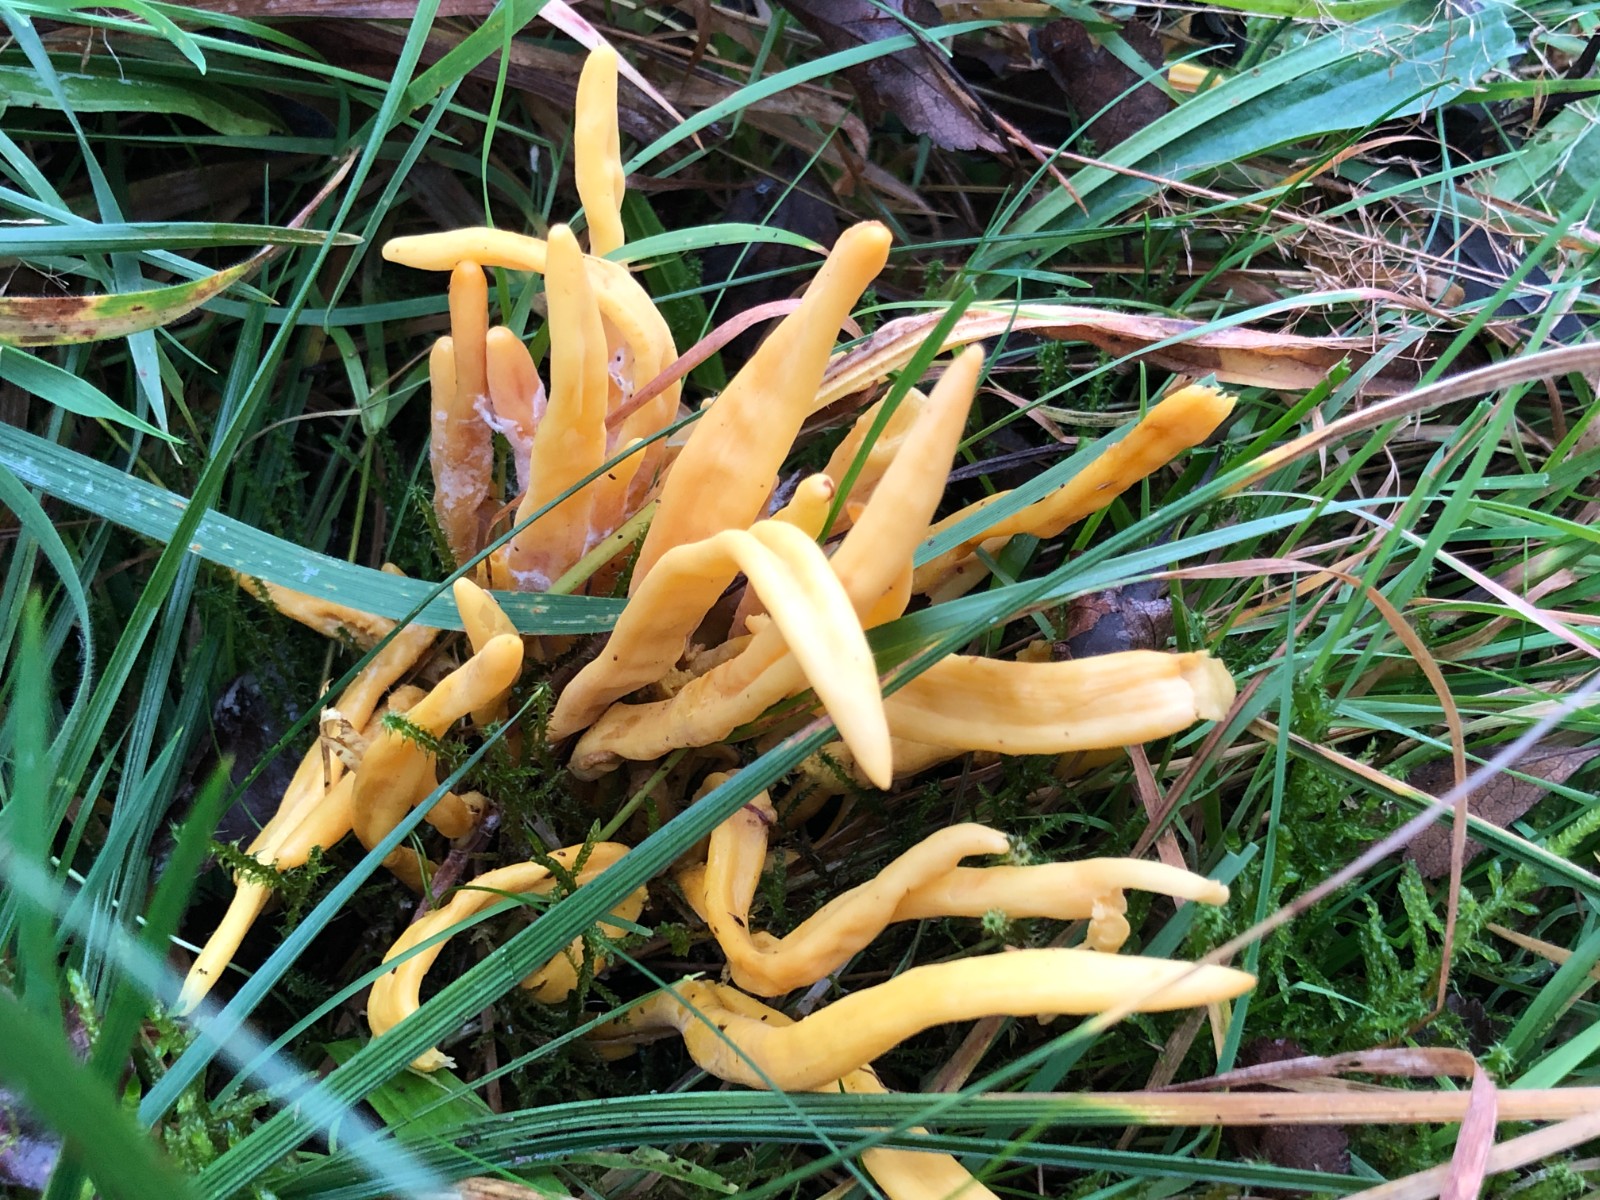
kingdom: Fungi
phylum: Basidiomycota
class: Agaricomycetes
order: Agaricales
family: Clavariaceae
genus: Clavulinopsis
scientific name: Clavulinopsis
